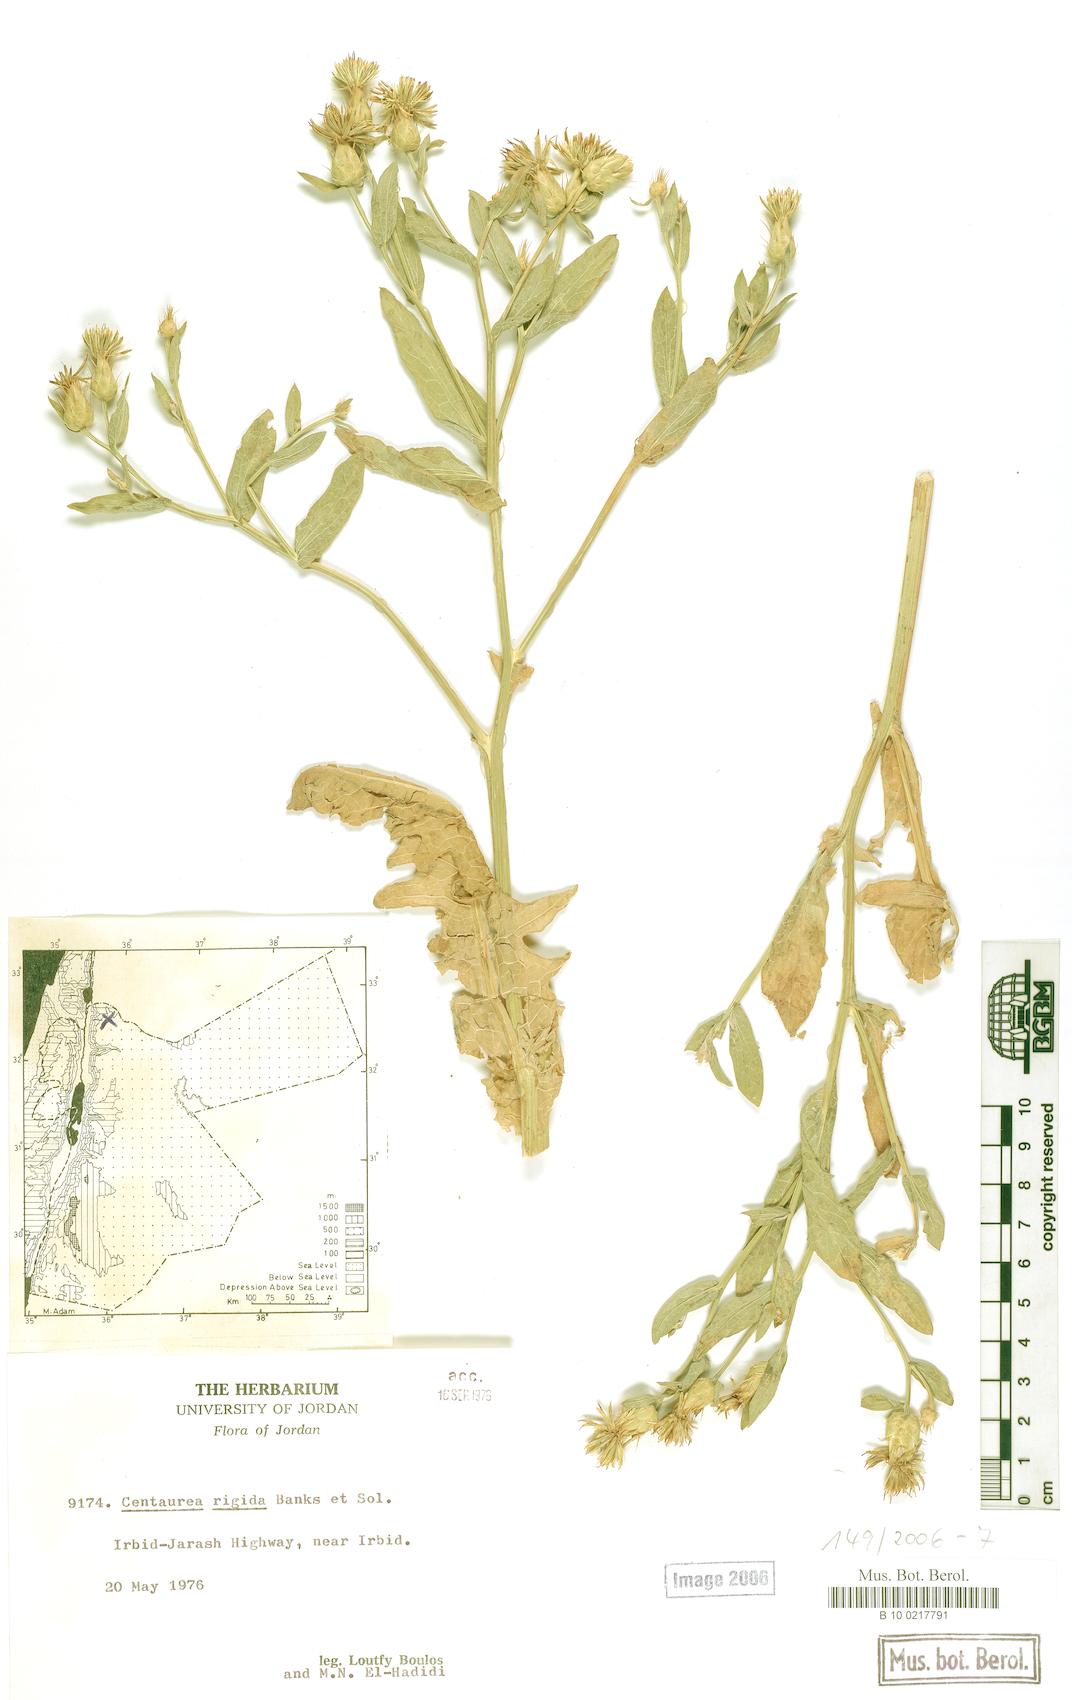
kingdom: Plantae
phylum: Tracheophyta
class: Magnoliopsida
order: Asterales
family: Asteraceae
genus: Centaurea
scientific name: Centaurea rigida
